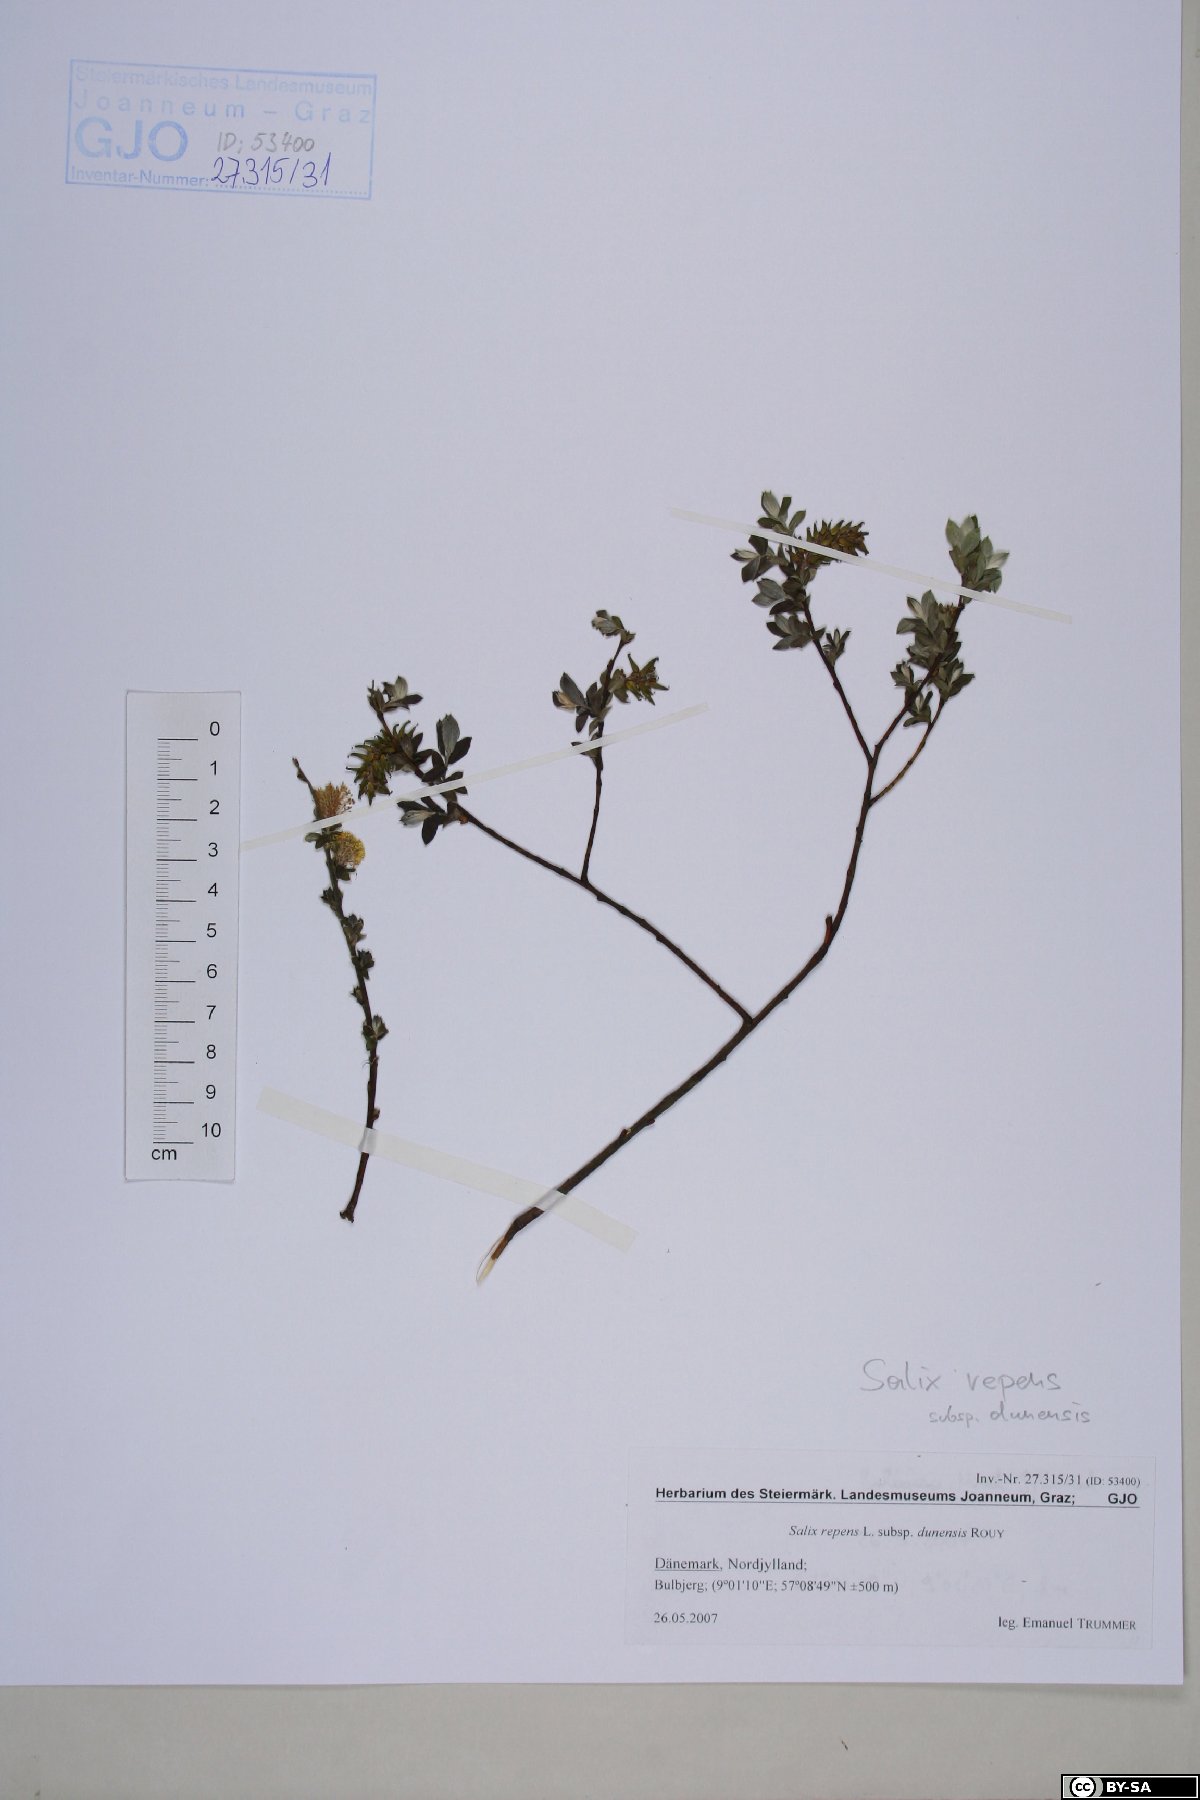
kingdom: Plantae
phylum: Tracheophyta
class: Magnoliopsida
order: Malpighiales
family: Salicaceae
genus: Salix
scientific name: Salix repens
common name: Creeping willow
